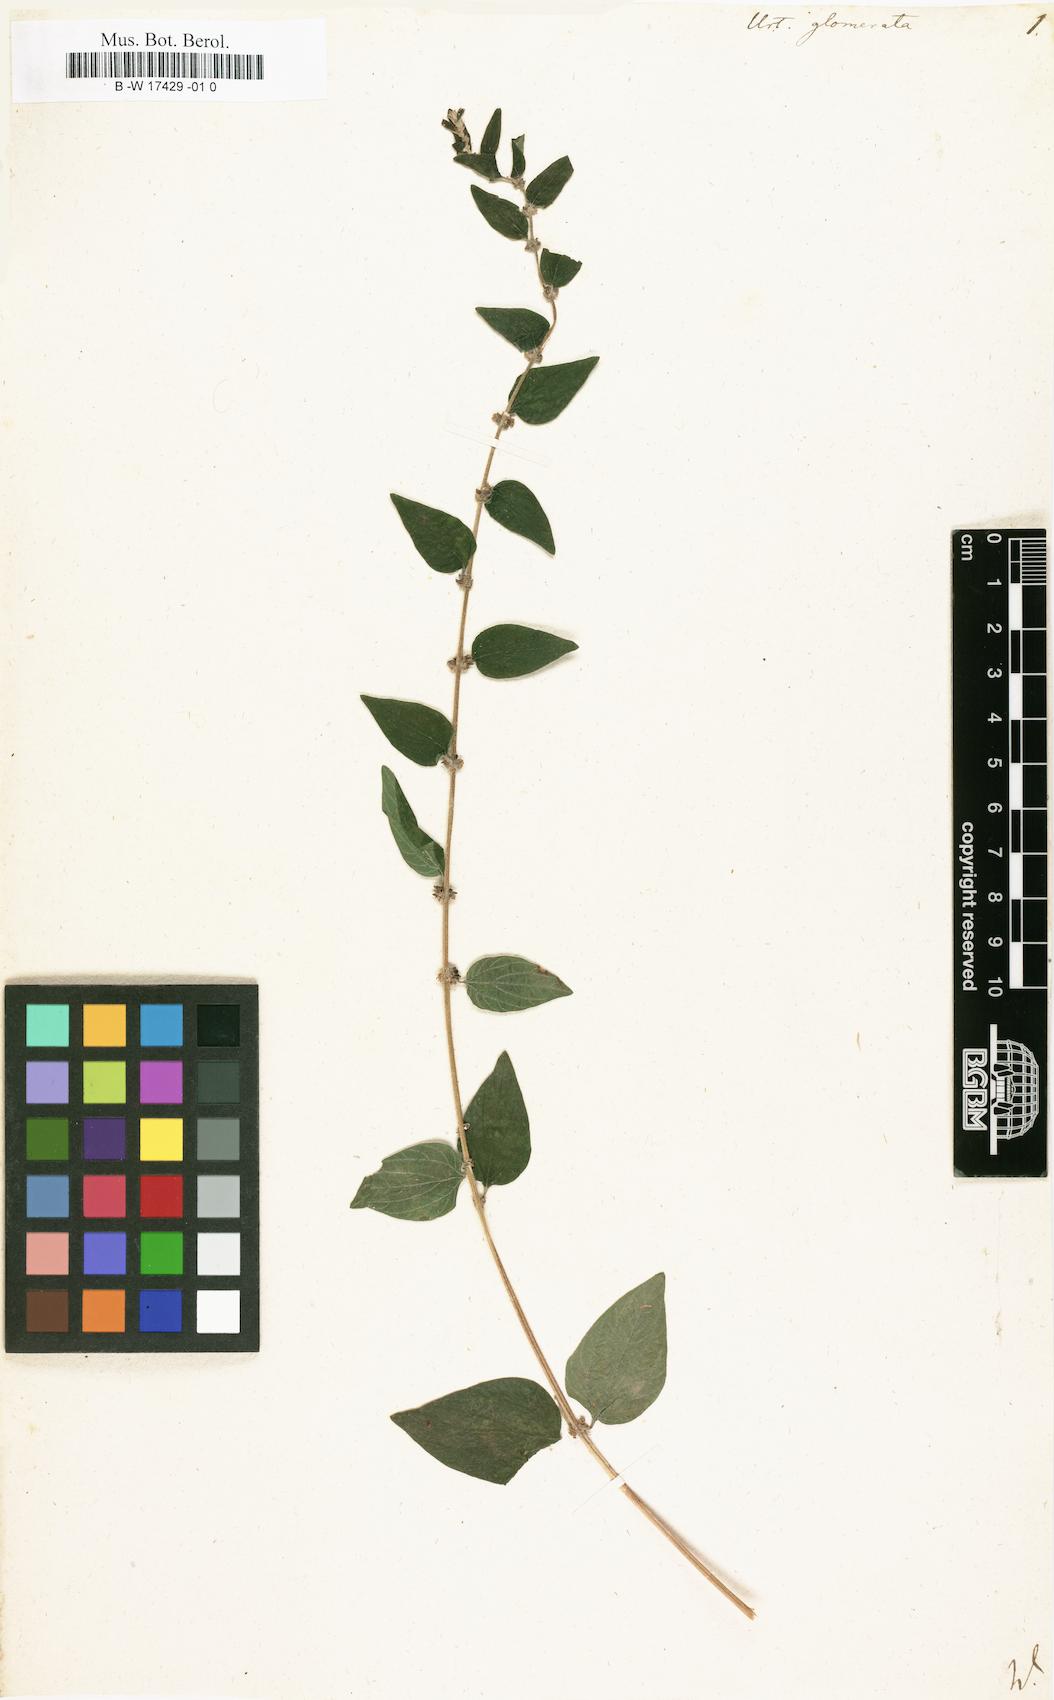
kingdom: Plantae
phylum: Tracheophyta
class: Magnoliopsida
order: Rosales
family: Urticaceae
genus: Pouzolzia
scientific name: Pouzolzia zeylanica
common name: Graceful pouzolzsbush
